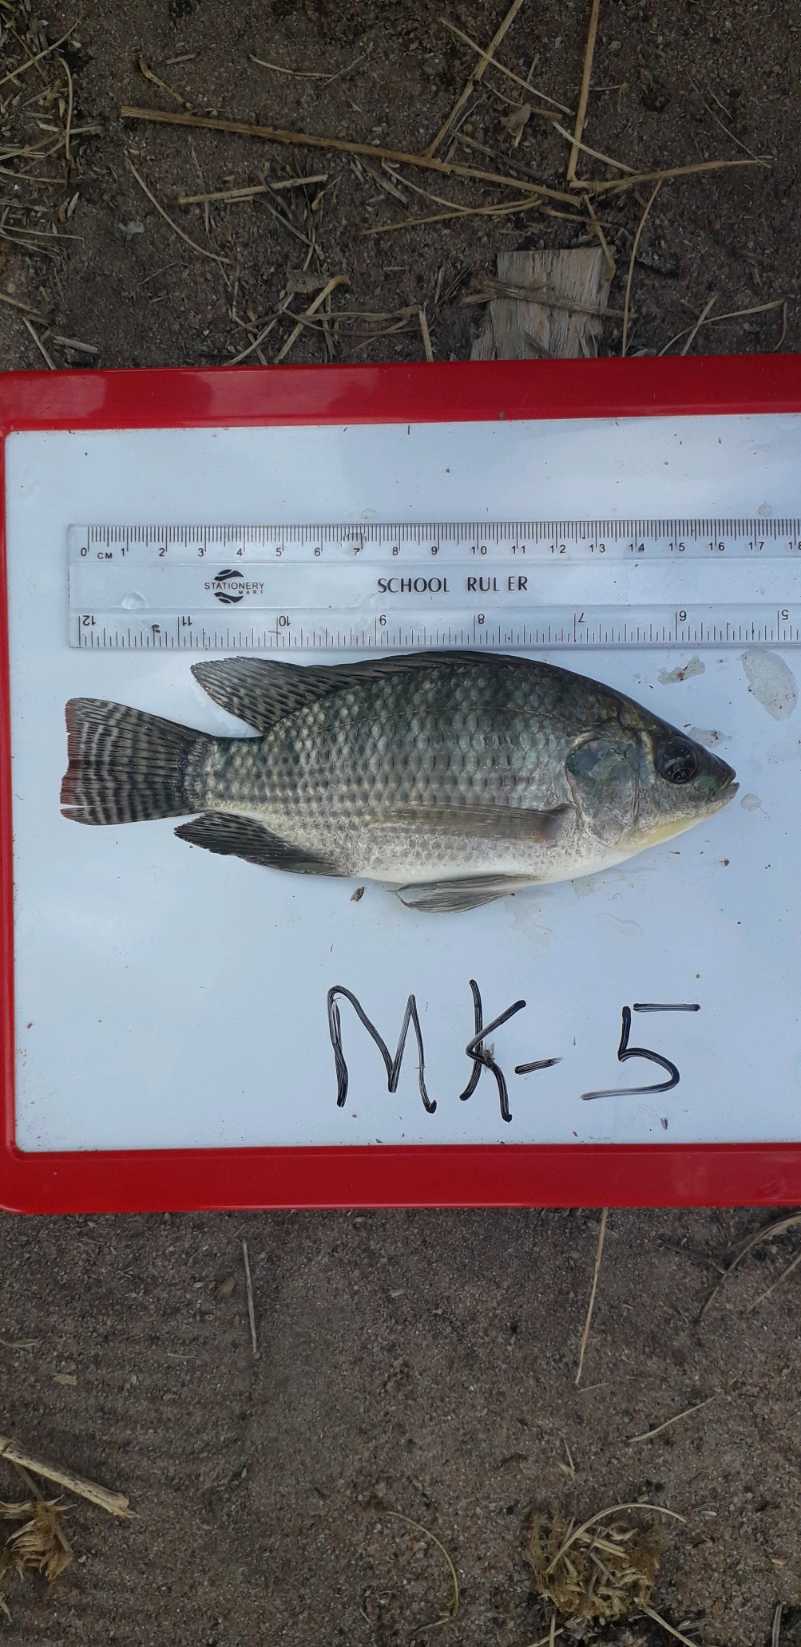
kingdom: Animalia
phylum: Chordata
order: Perciformes
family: Cichlidae
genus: Oreochromis
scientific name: Oreochromis niloticus
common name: Nile tilapia
